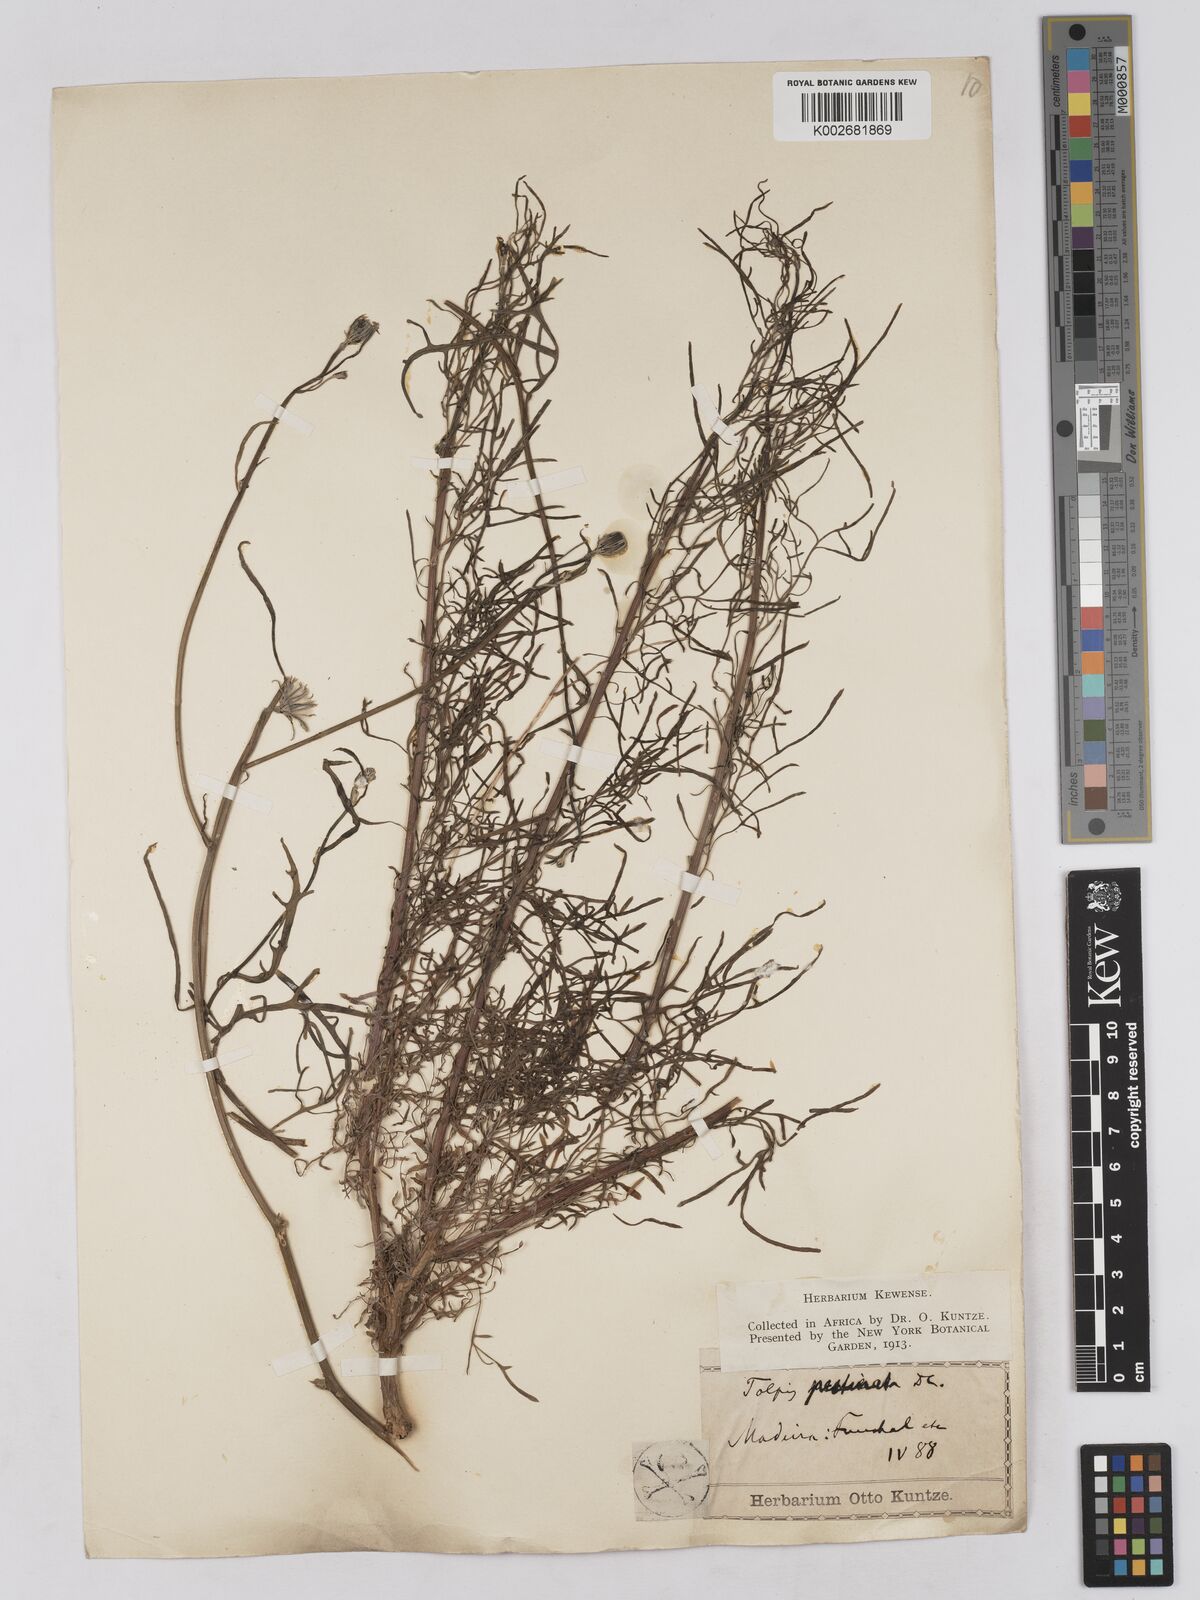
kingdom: Plantae
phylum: Tracheophyta
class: Magnoliopsida
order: Asterales
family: Asteraceae
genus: Tolpis
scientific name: Tolpis succulenta
